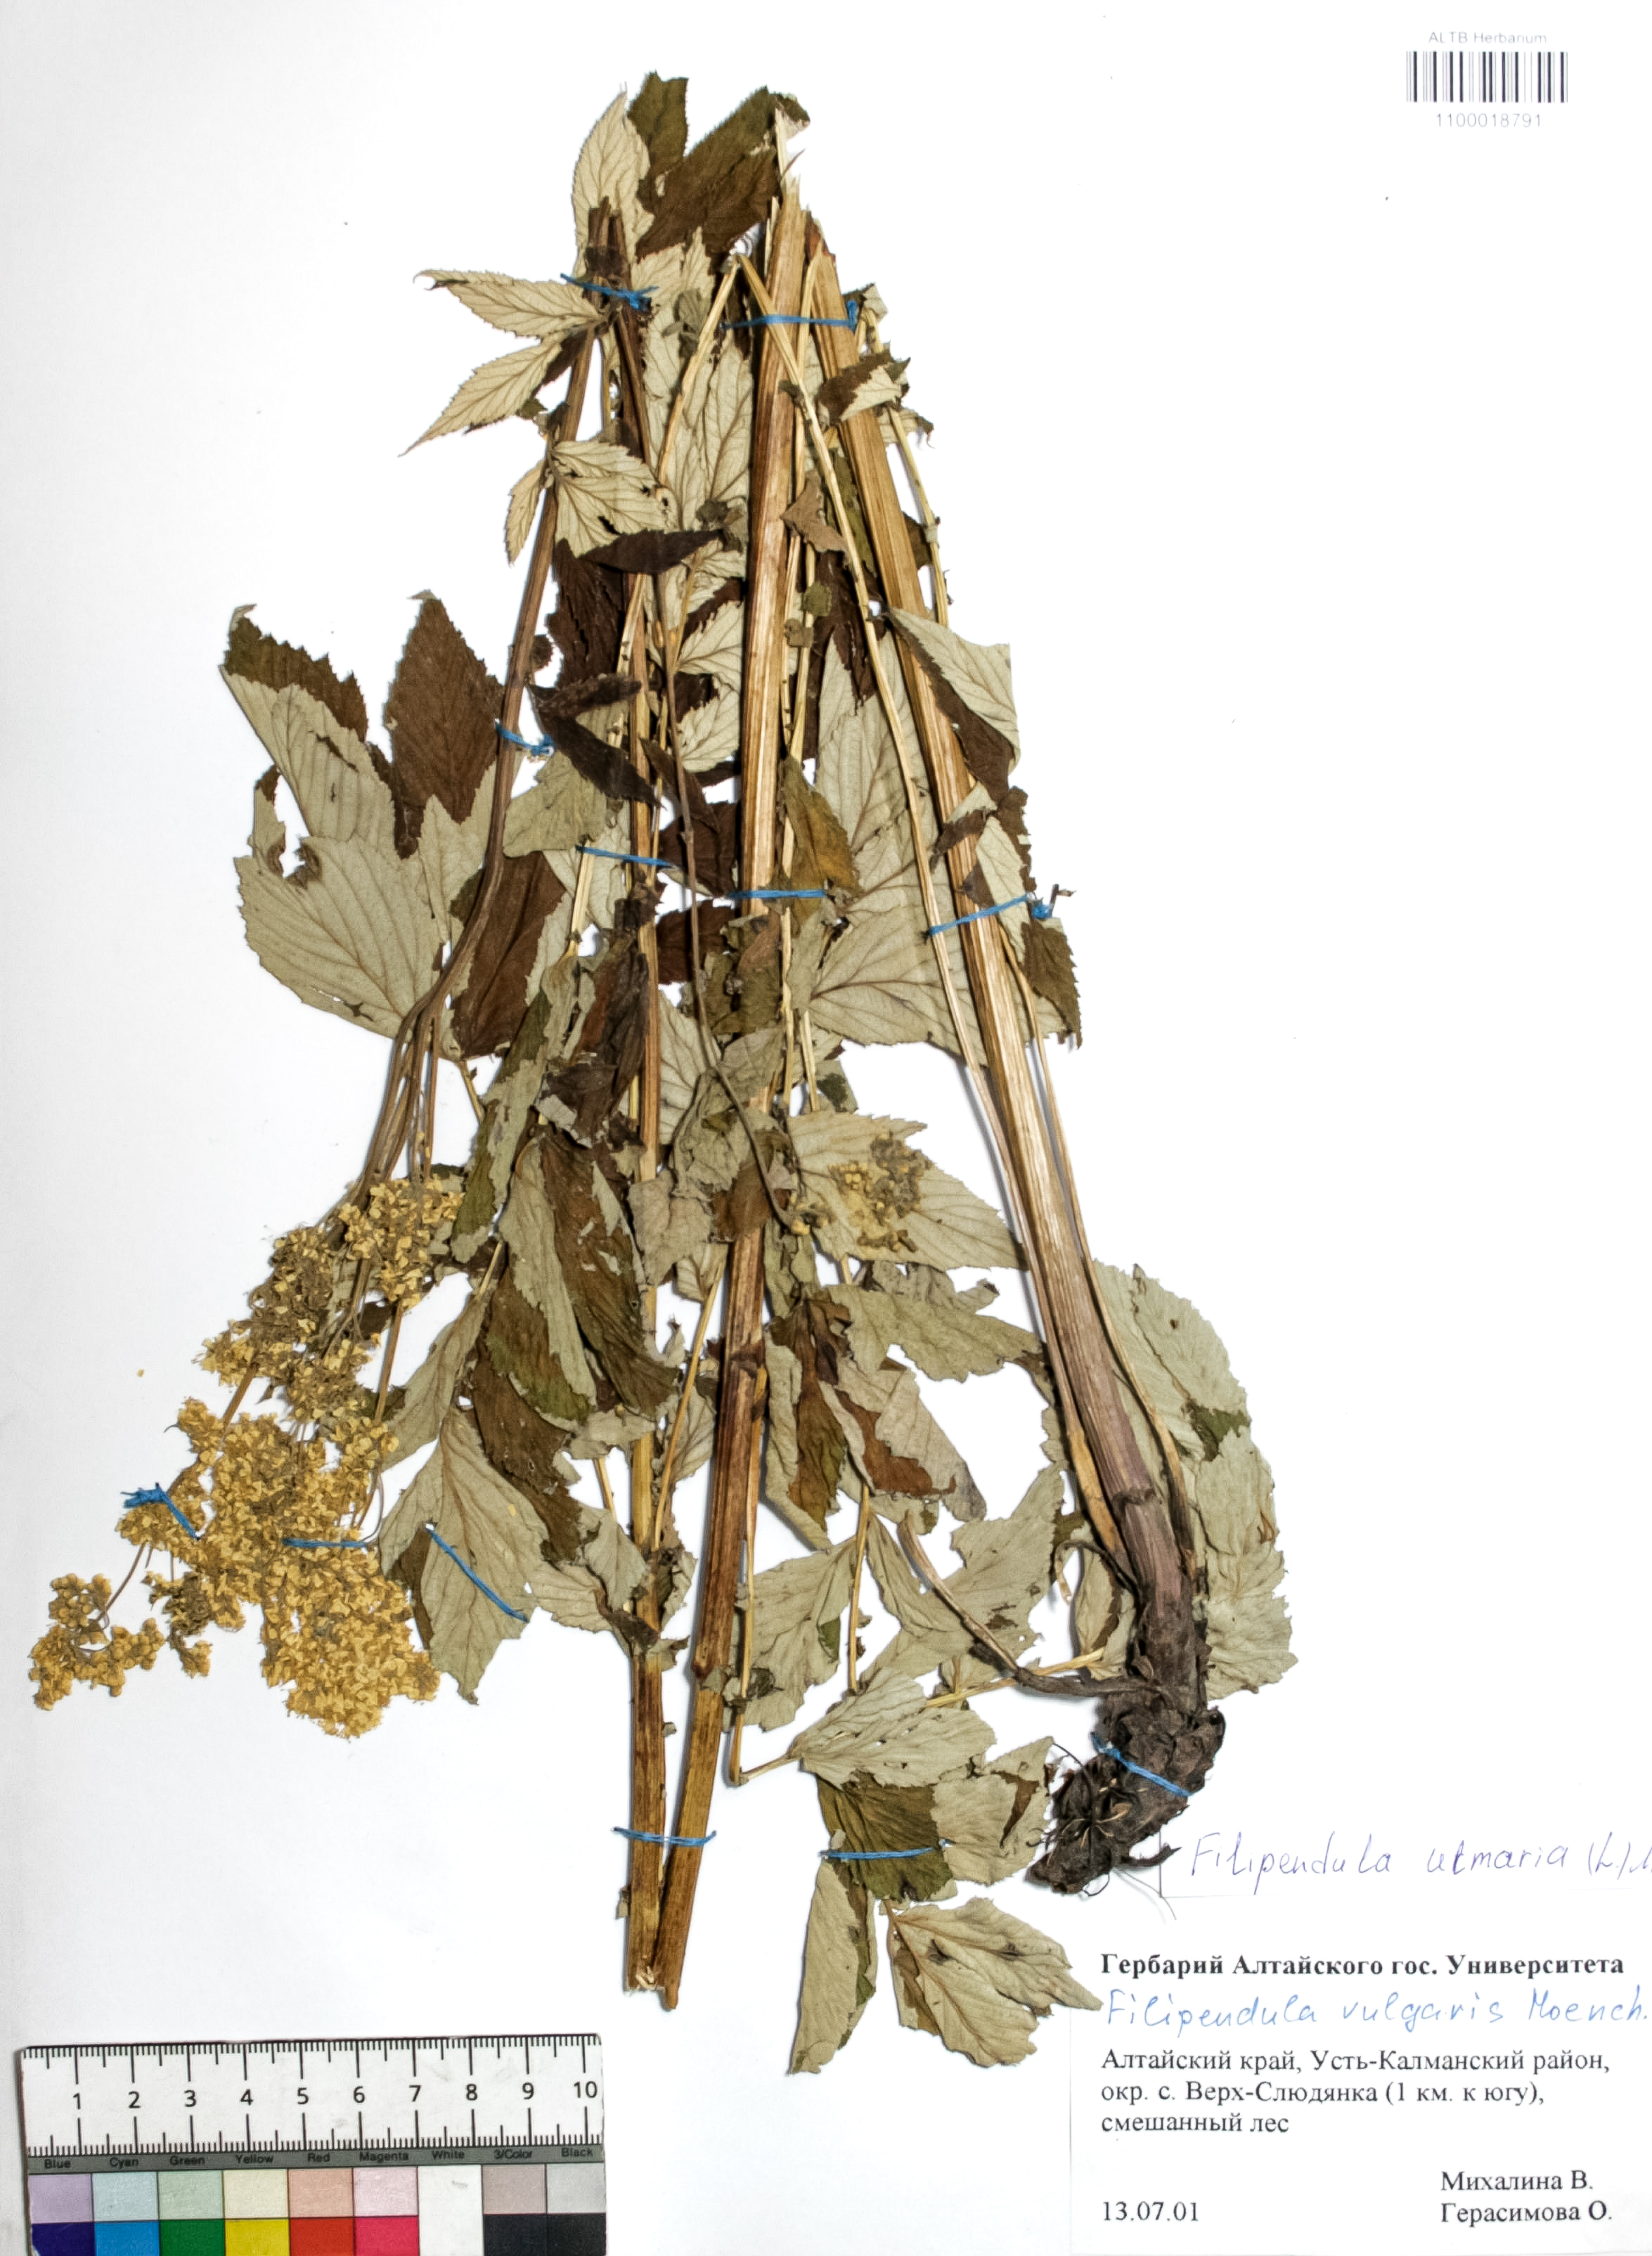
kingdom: Plantae
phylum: Tracheophyta
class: Magnoliopsida
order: Rosales
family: Rosaceae
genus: Filipendula
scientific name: Filipendula ulmaria
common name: Meadowsweet
